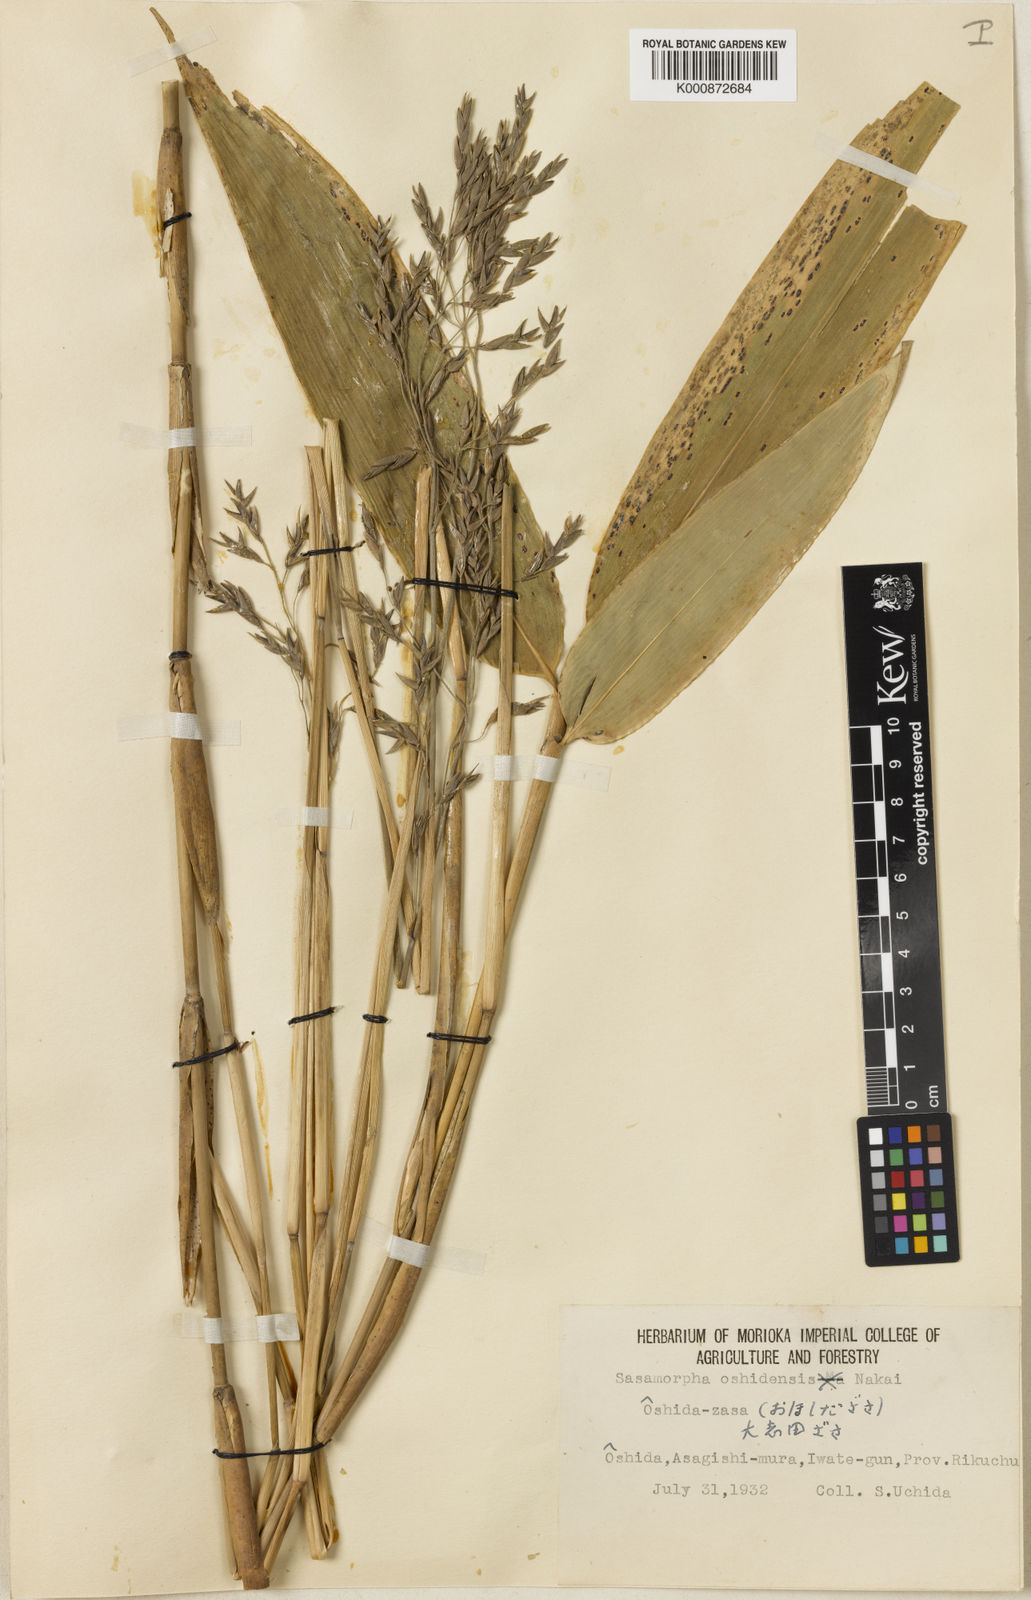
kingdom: Plantae
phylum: Tracheophyta
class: Liliopsida
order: Poales
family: Poaceae
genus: Sasamorpha
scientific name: Sasamorpha oshidensis
